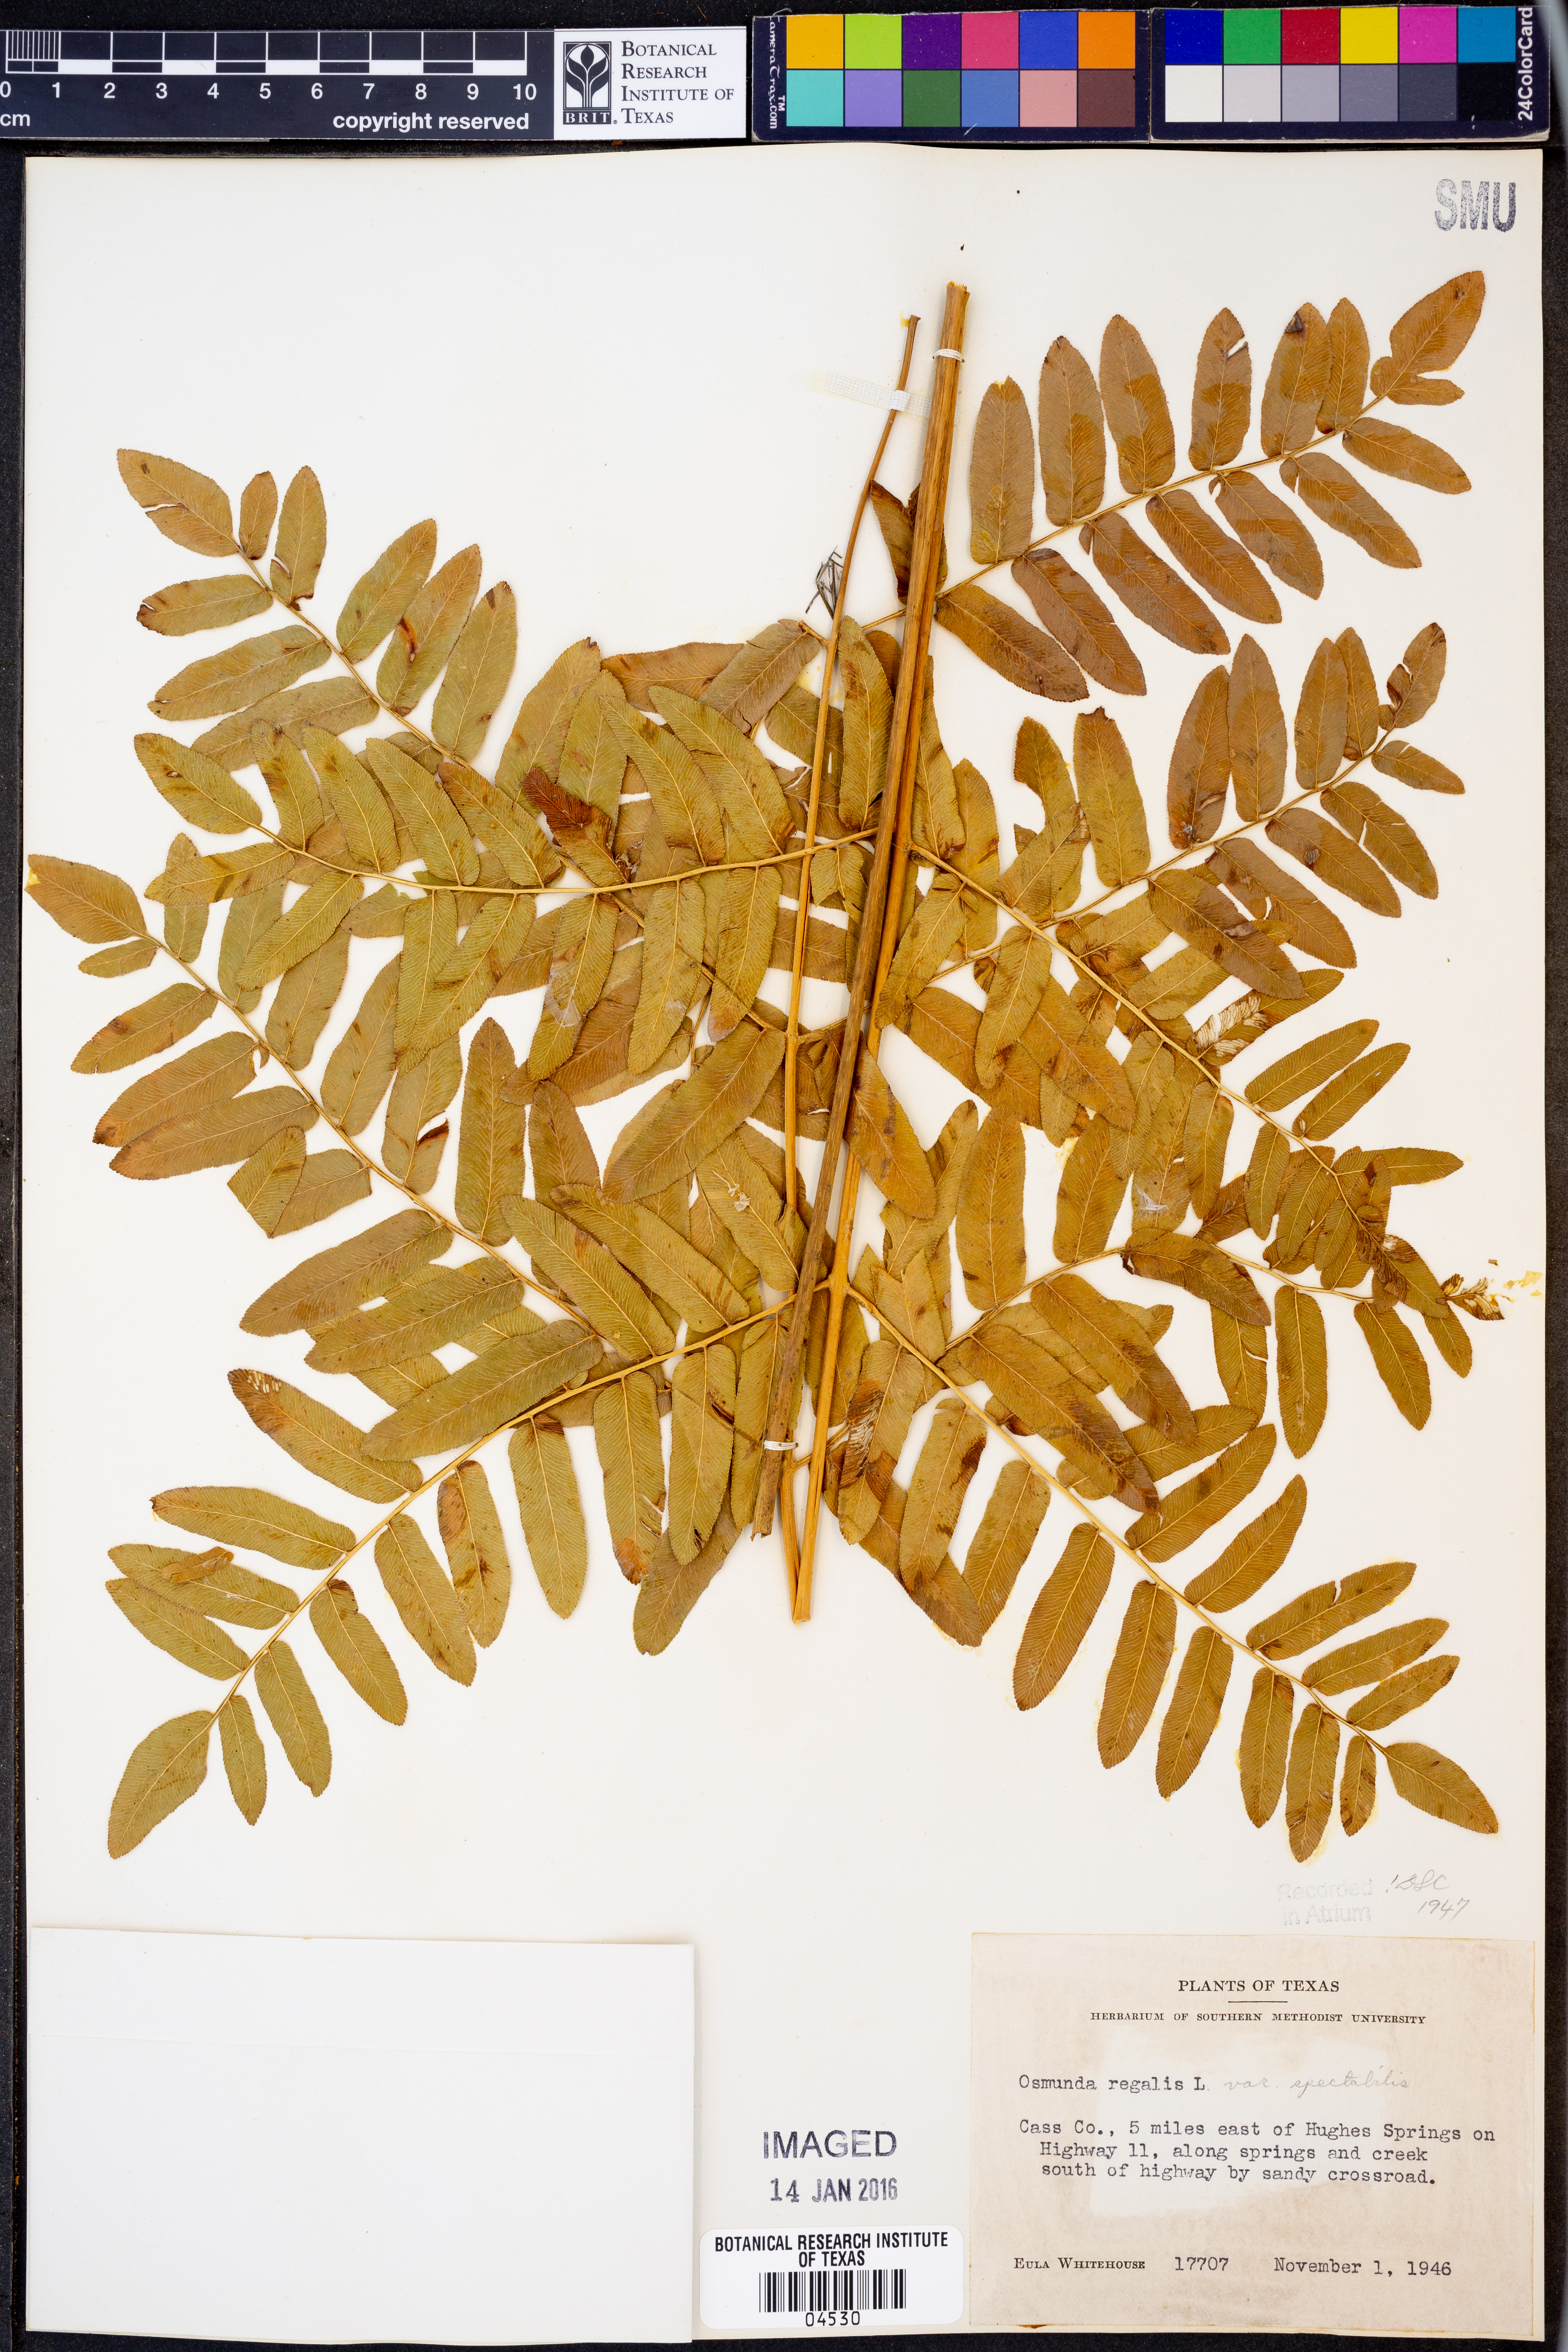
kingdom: Plantae
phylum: Tracheophyta
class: Polypodiopsida
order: Osmundales
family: Osmundaceae
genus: Osmunda
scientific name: Osmunda spectabilis
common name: American royal fern
